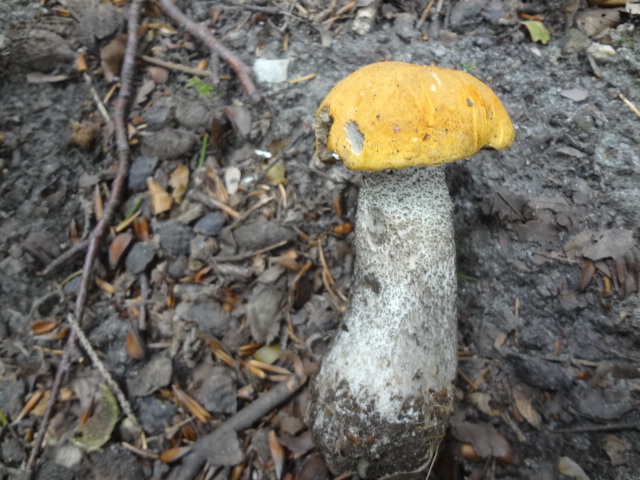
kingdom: Fungi
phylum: Basidiomycota
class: Agaricomycetes
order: Boletales
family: Boletaceae
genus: Leccinum
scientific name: Leccinum versipelle
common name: orange skælrørhat
